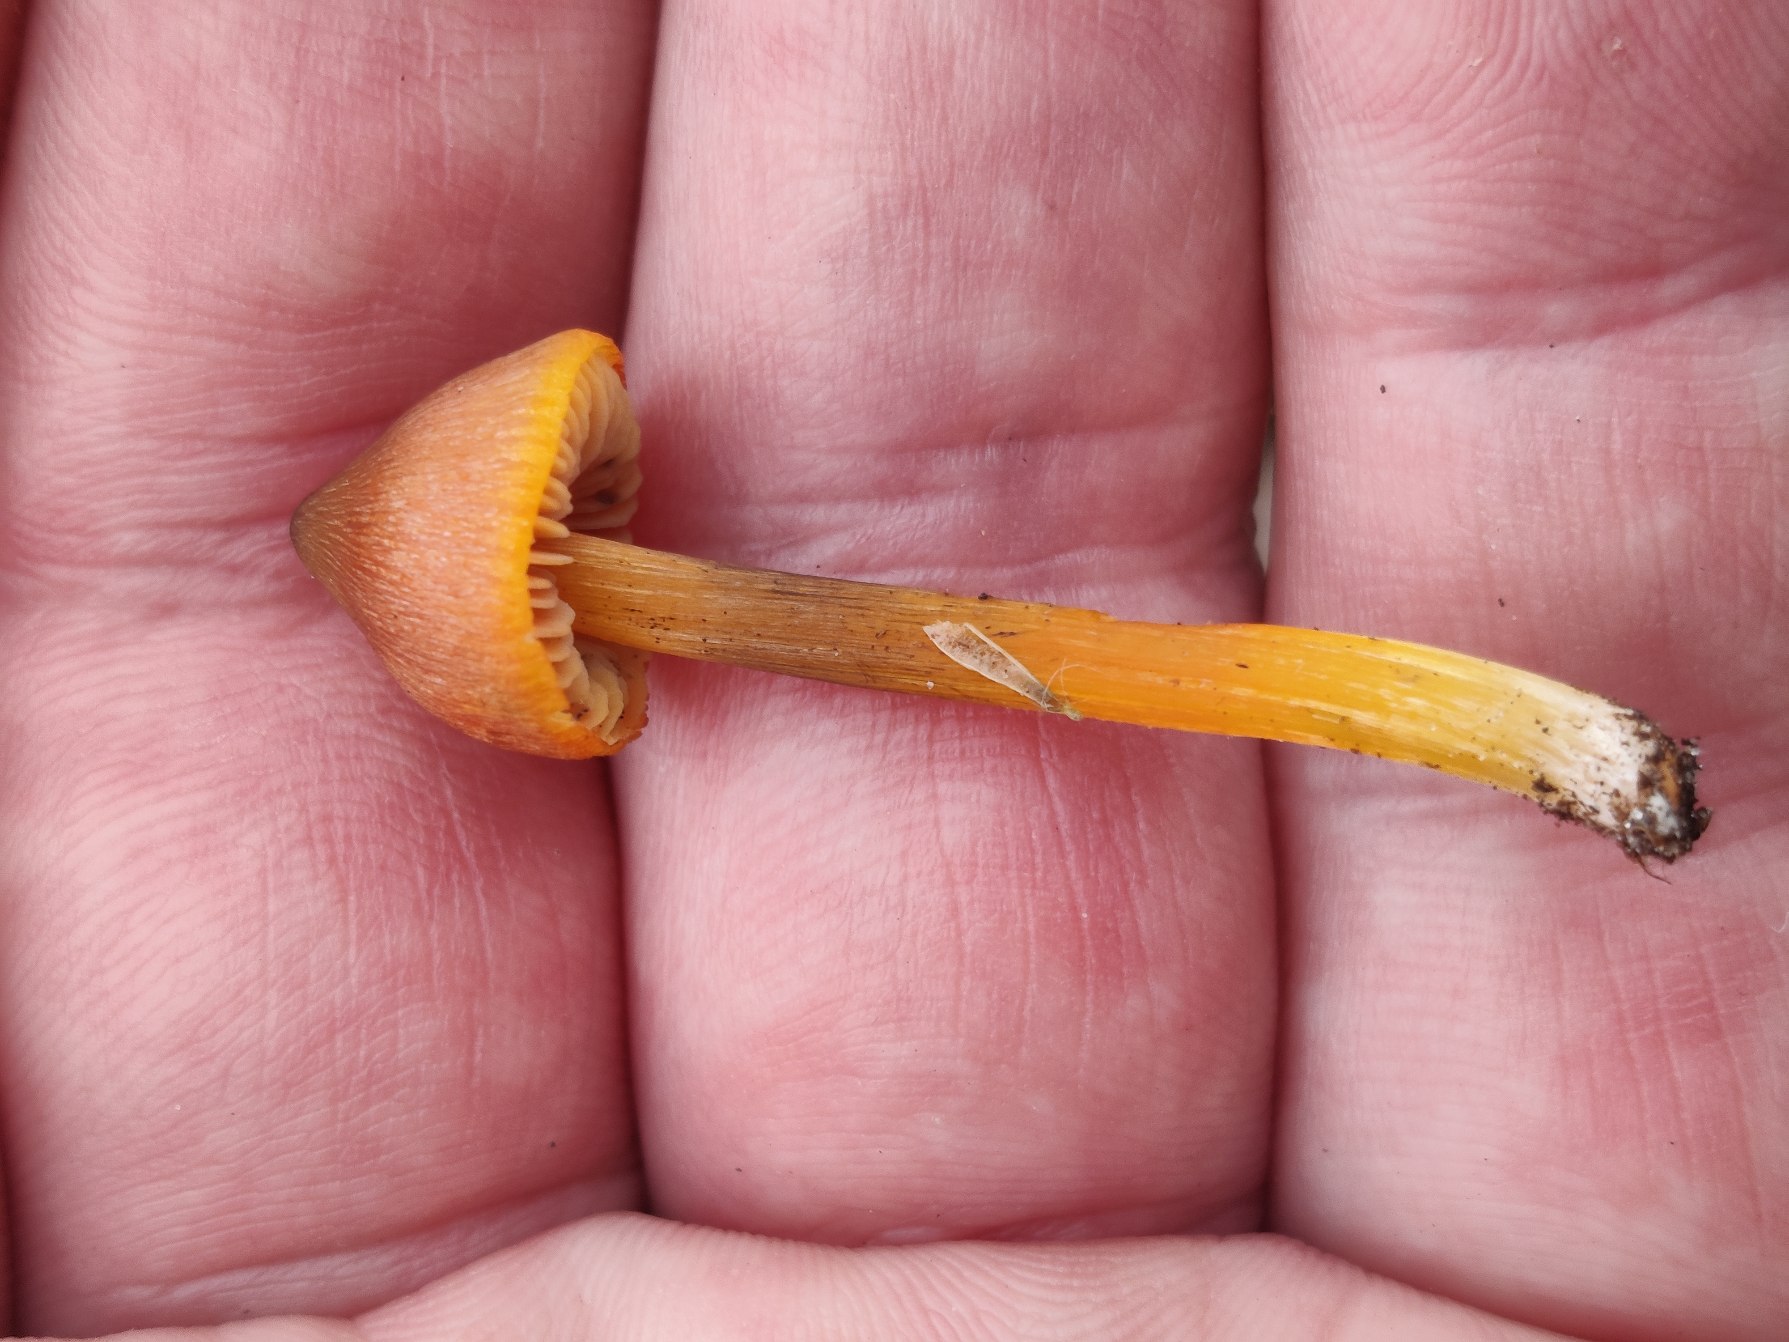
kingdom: Fungi
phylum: Basidiomycota
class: Agaricomycetes
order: Agaricales
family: Hygrophoraceae
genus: Hygrocybe
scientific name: Hygrocybe conica
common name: Kegle-vokshat
